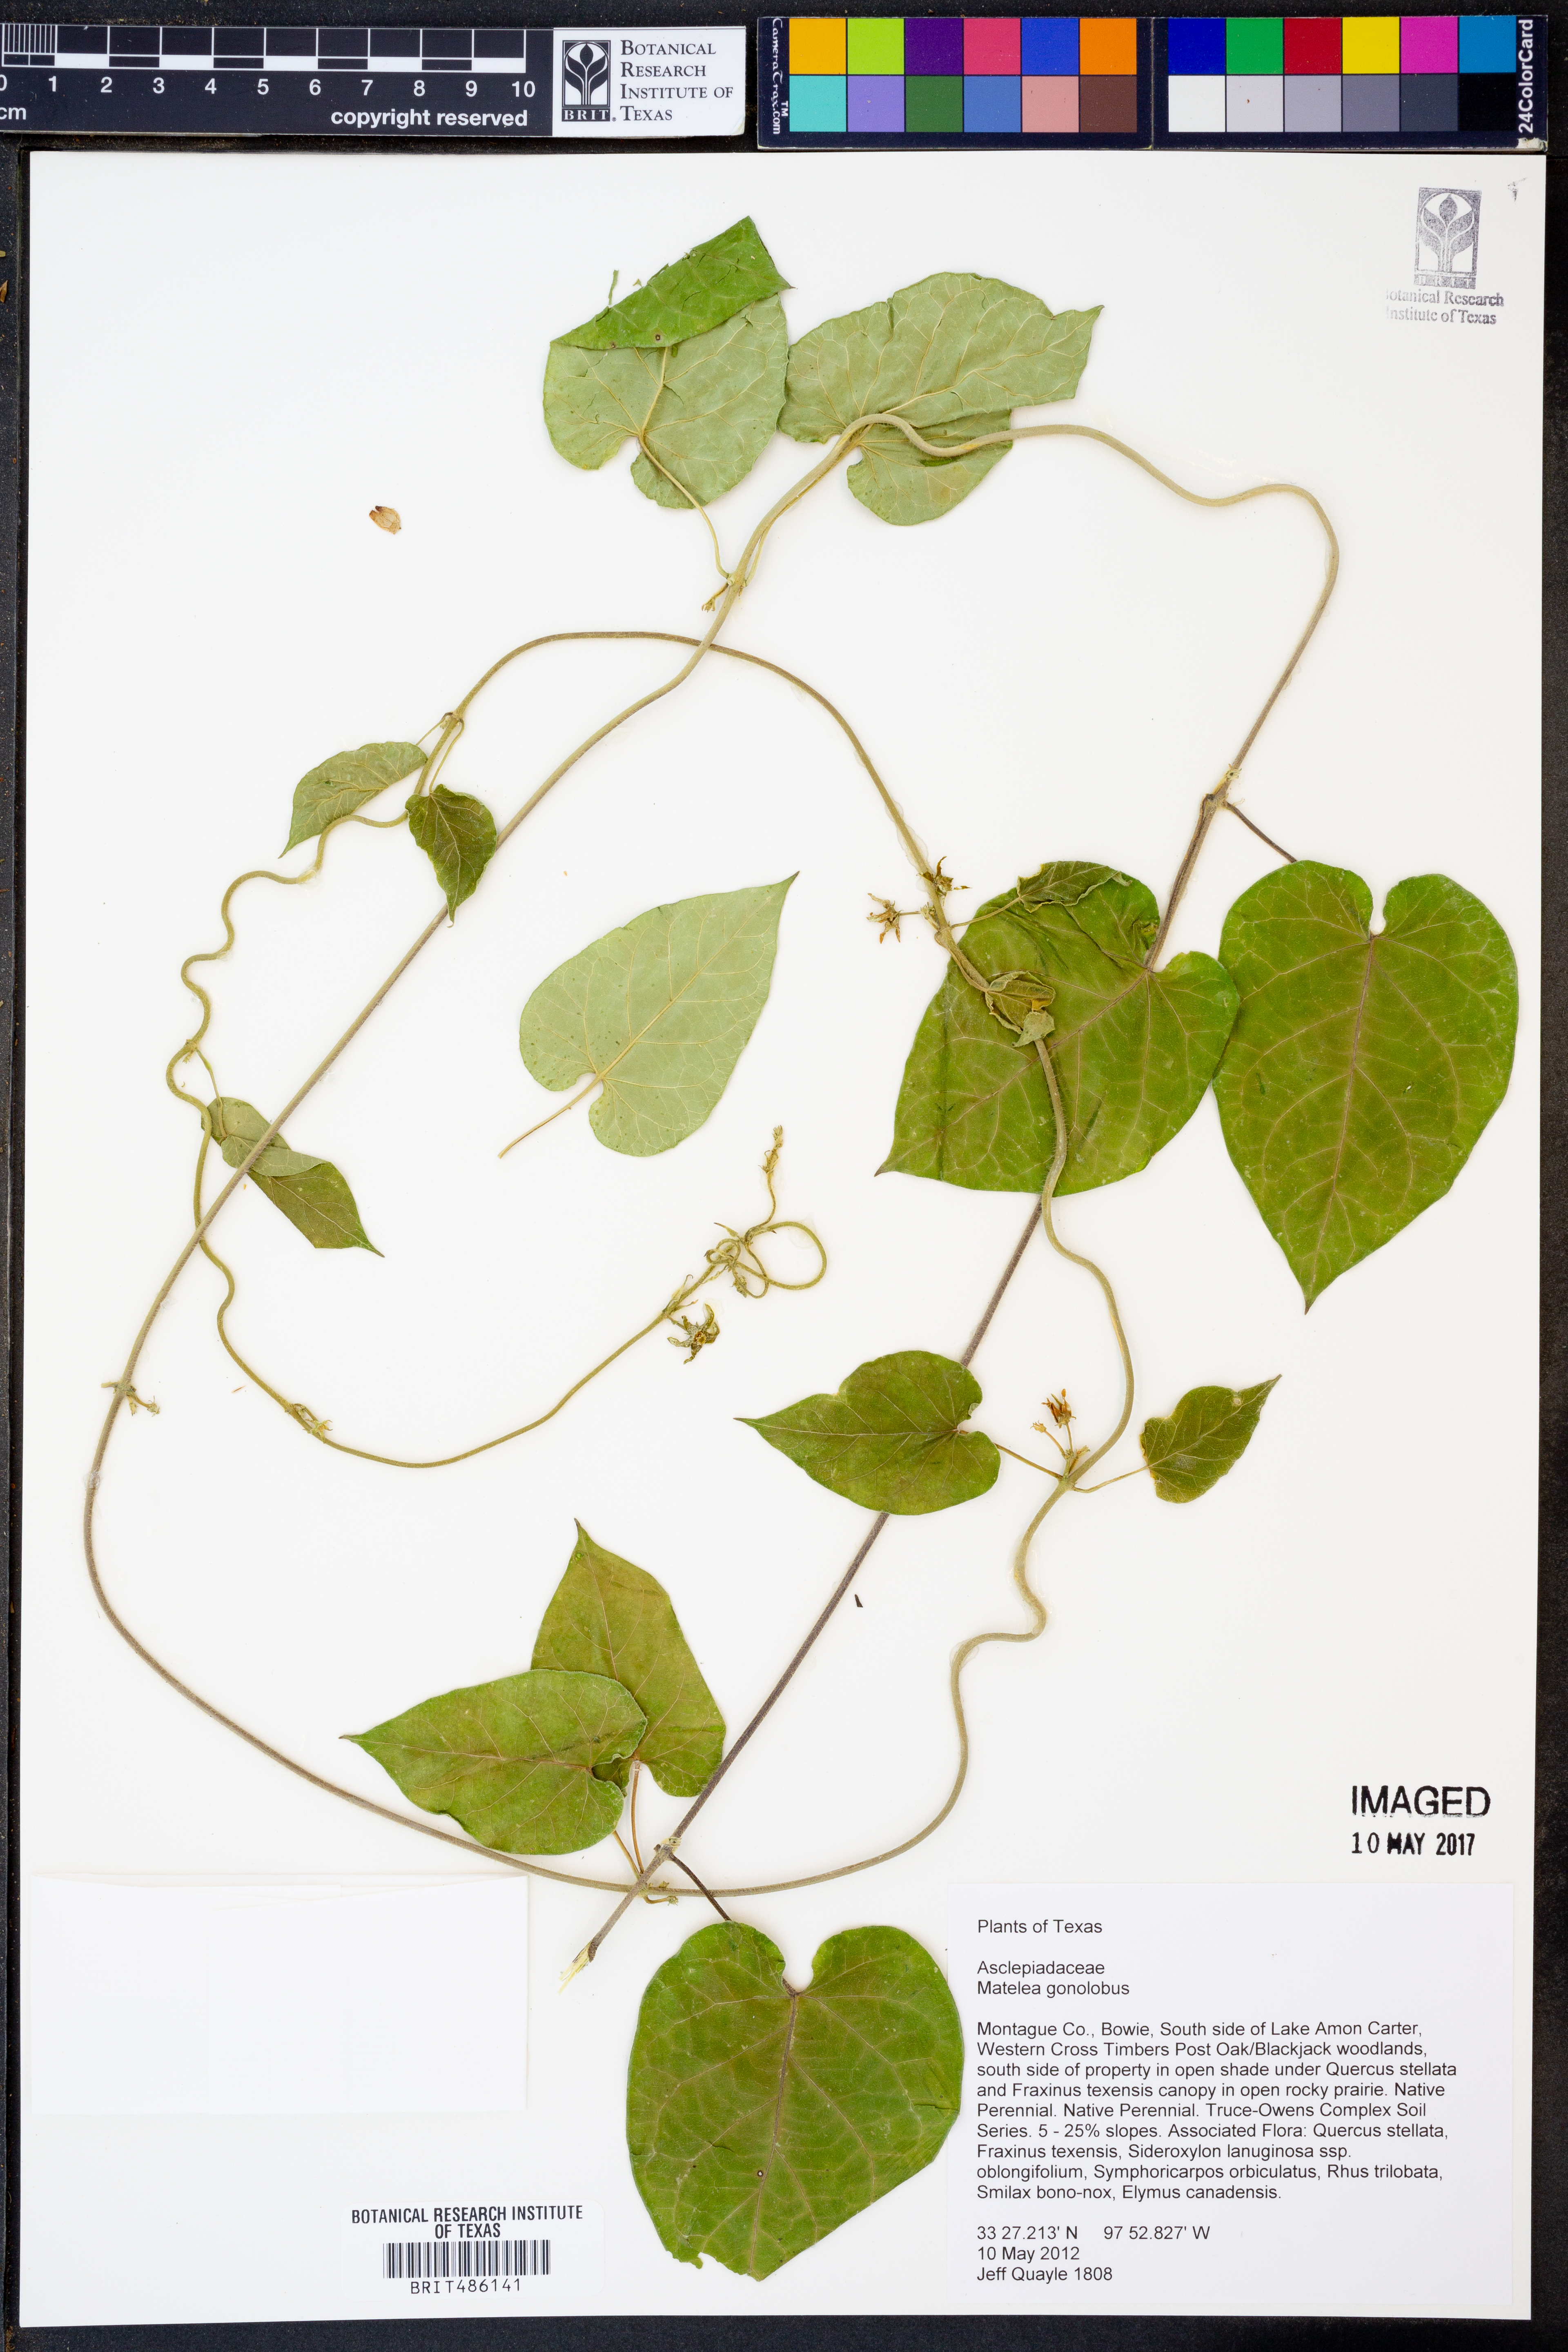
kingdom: Plantae
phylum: Tracheophyta
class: Magnoliopsida
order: Gentianales
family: Apocynaceae
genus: Gonolobus
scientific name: Gonolobus gonocarpus
